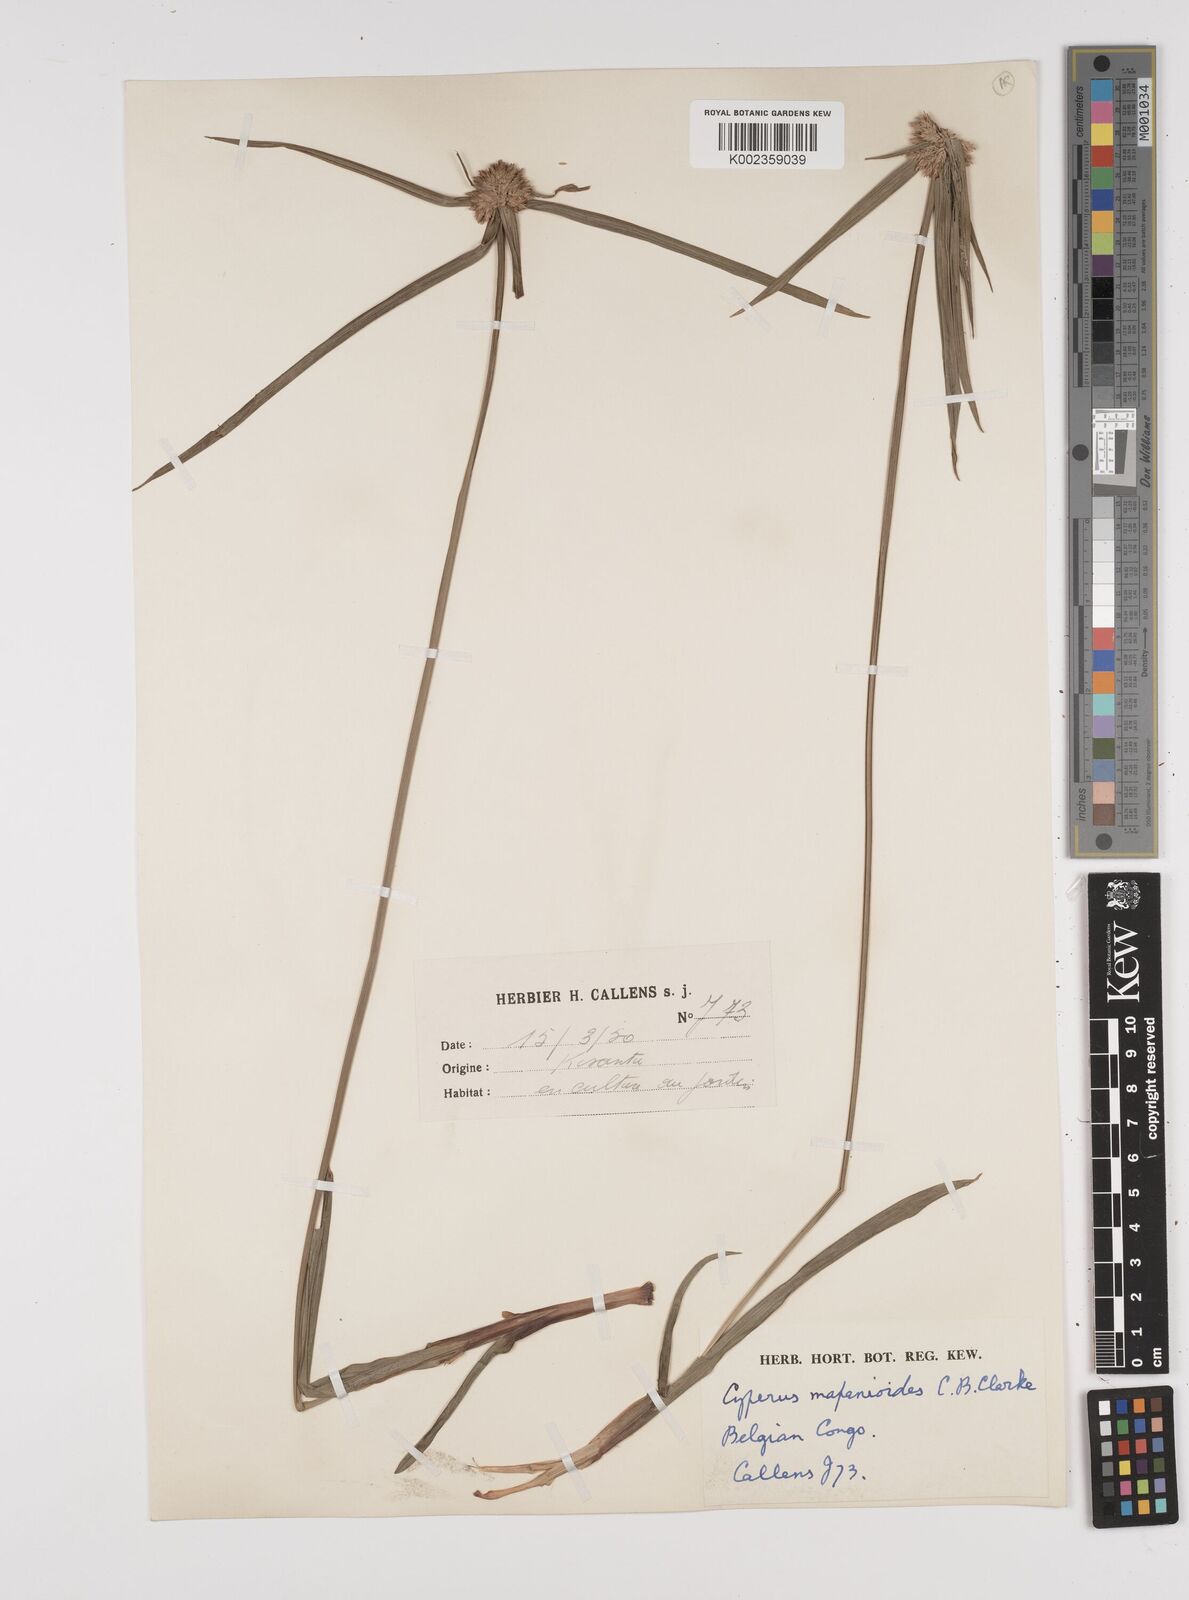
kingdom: Plantae
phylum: Tracheophyta
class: Liliopsida
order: Poales
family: Cyperaceae
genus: Cyperus
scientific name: Cyperus mapanioides
